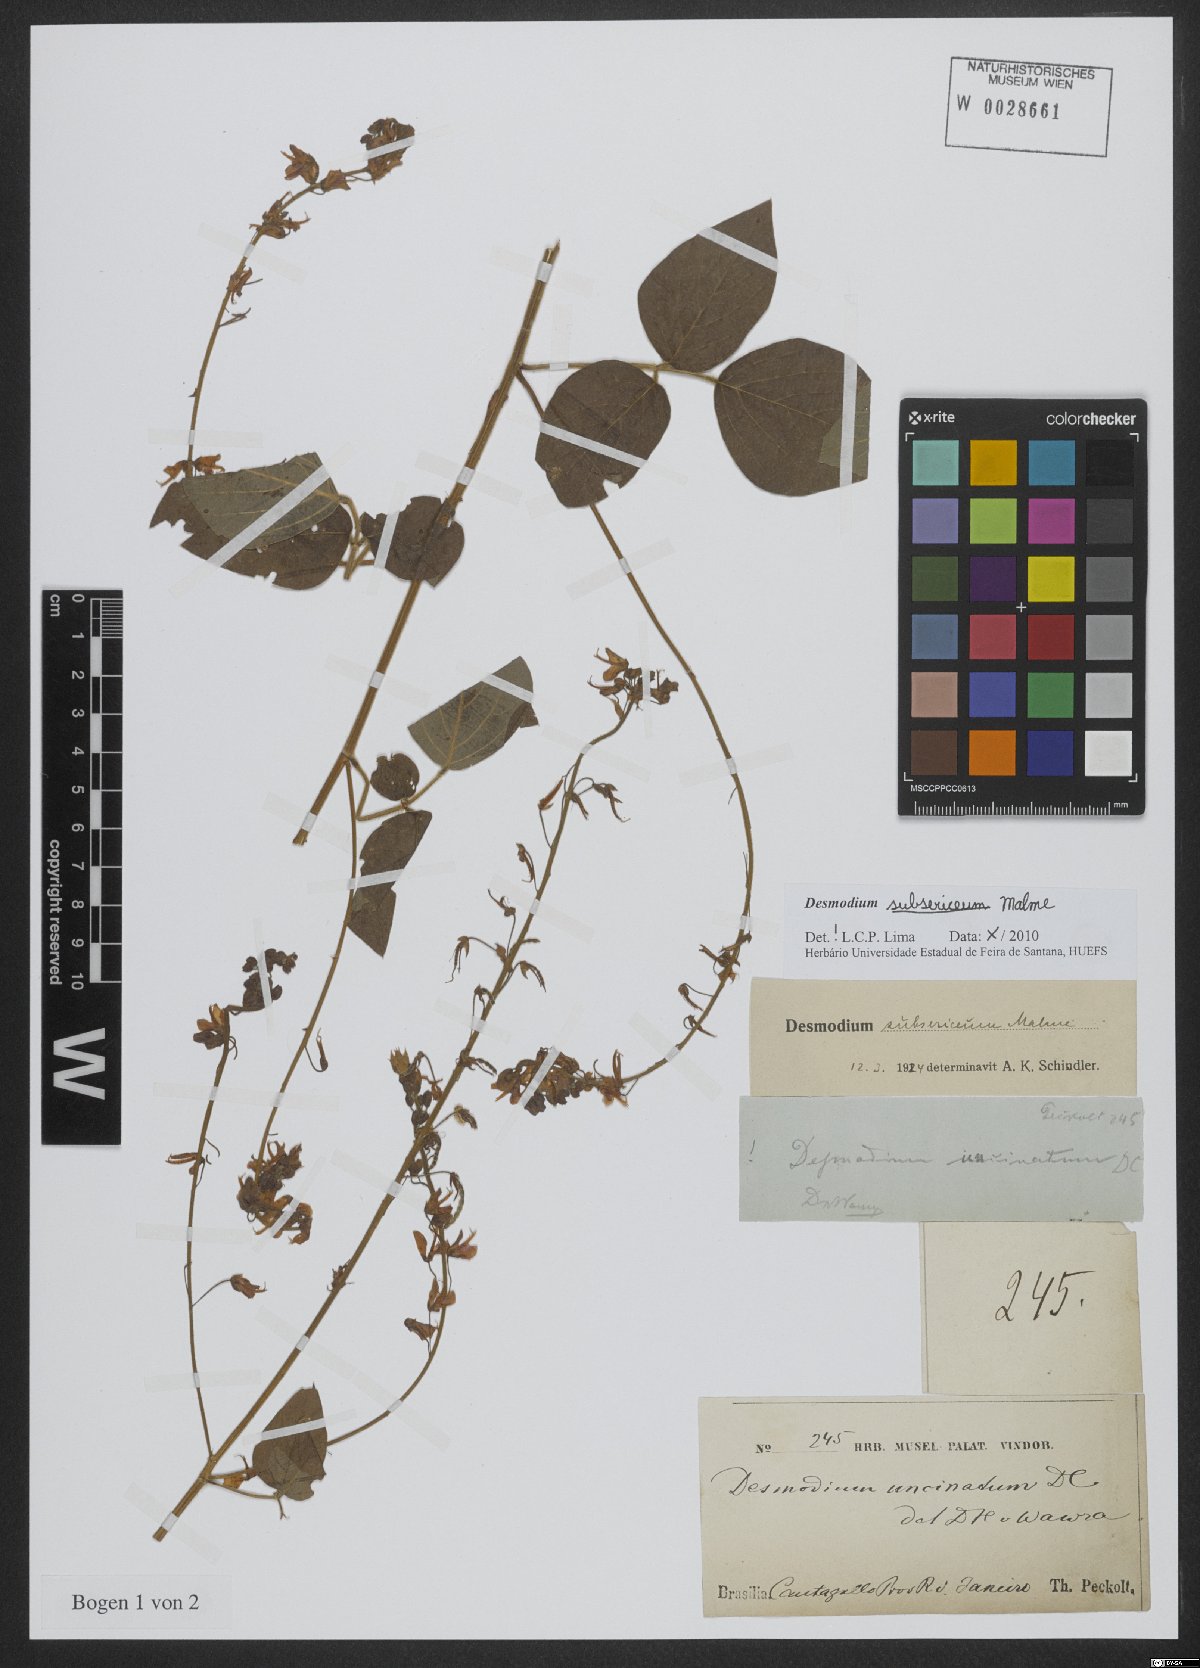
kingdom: Plantae
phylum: Tracheophyta
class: Magnoliopsida
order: Fabales
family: Fabaceae
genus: Desmodium
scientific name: Desmodium subsericeum
